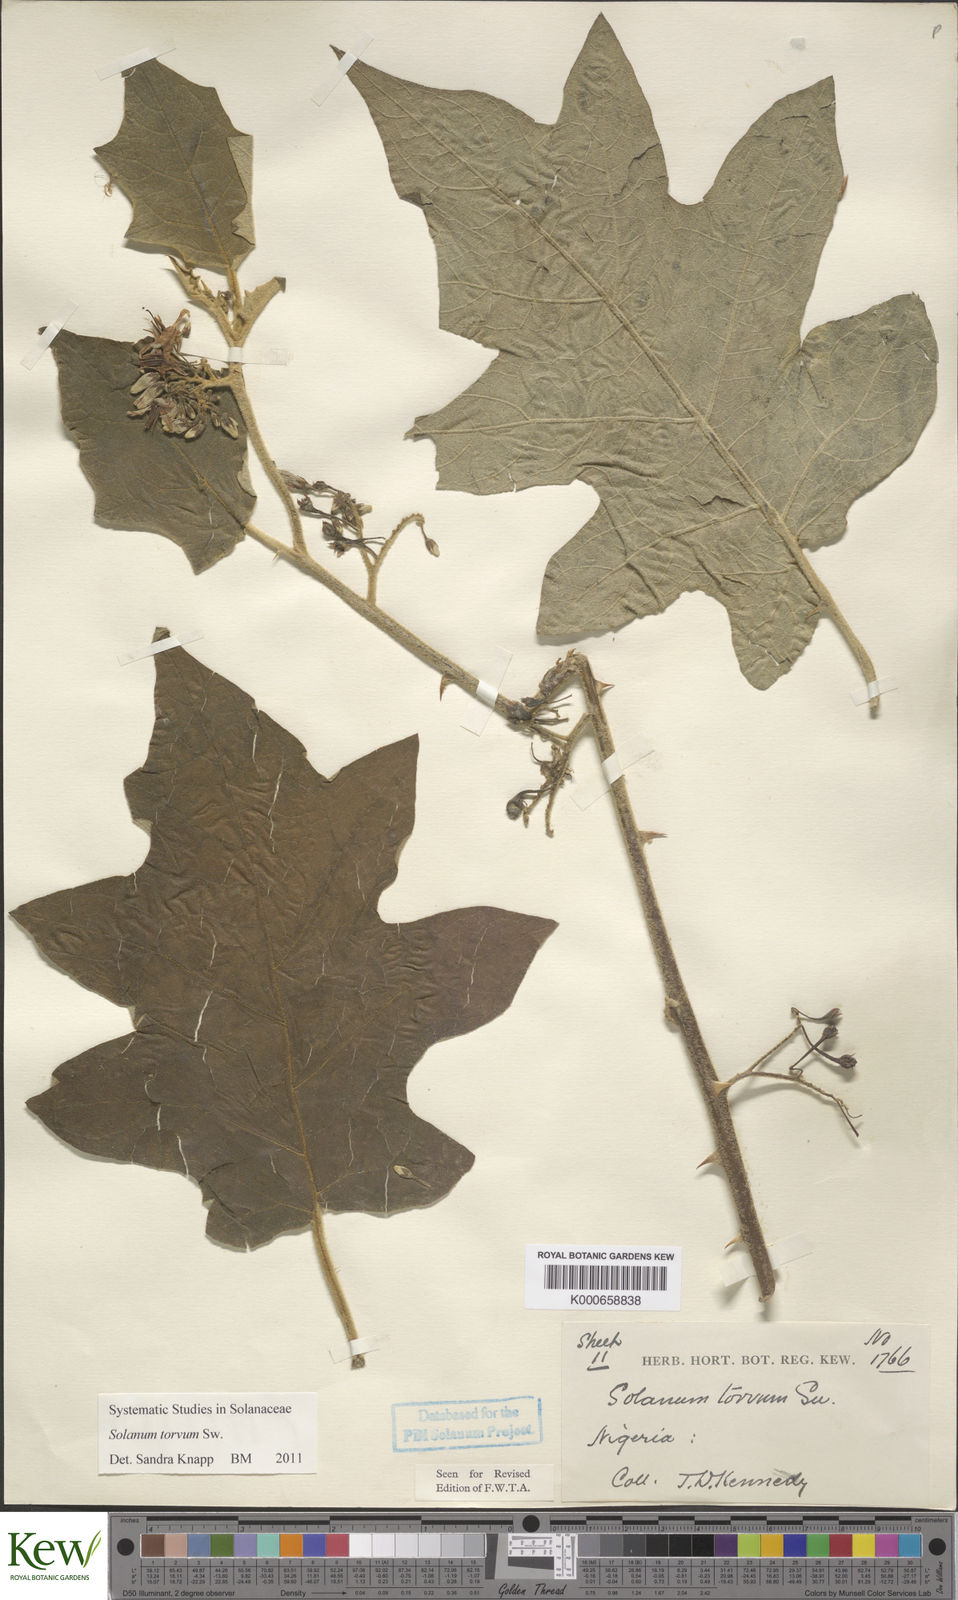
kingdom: Plantae
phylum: Tracheophyta
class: Magnoliopsida
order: Solanales
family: Solanaceae
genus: Solanum
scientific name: Solanum torvum
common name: Turkey berry
